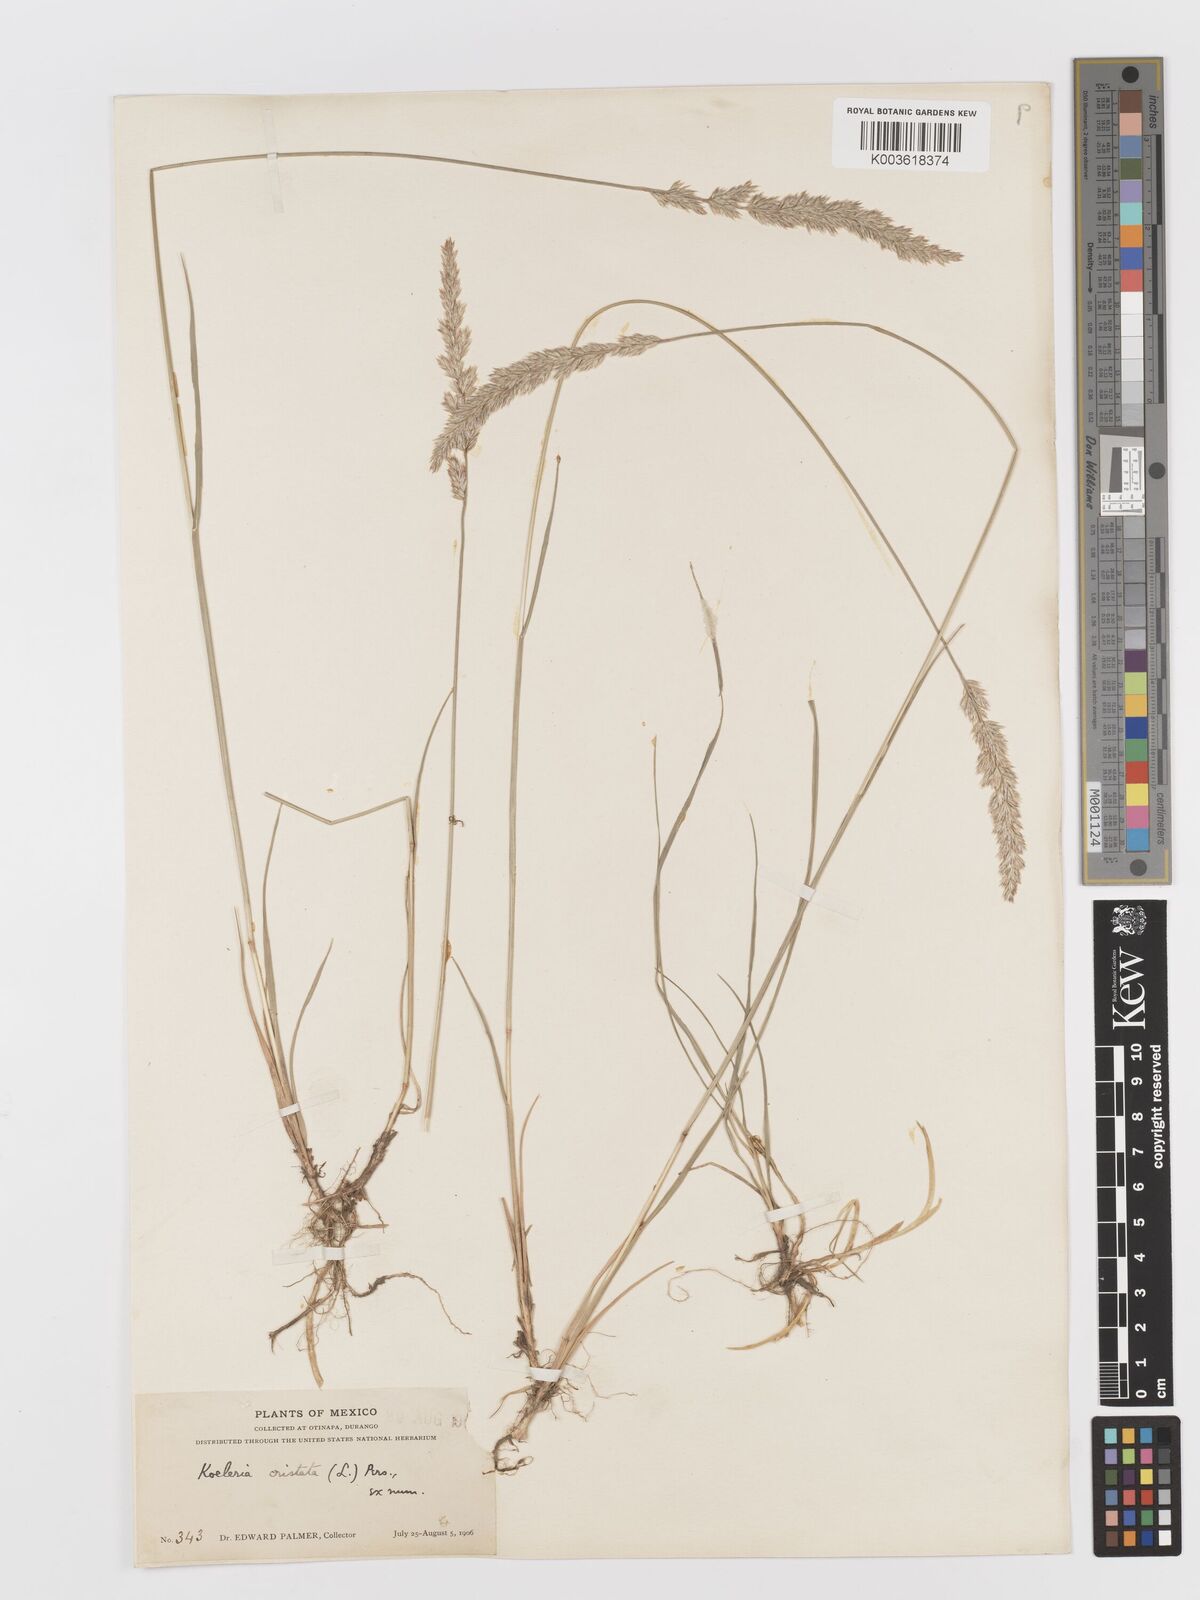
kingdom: Plantae
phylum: Tracheophyta
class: Liliopsida
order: Poales
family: Poaceae
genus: Koeleria
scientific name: Koeleria pyramidata
